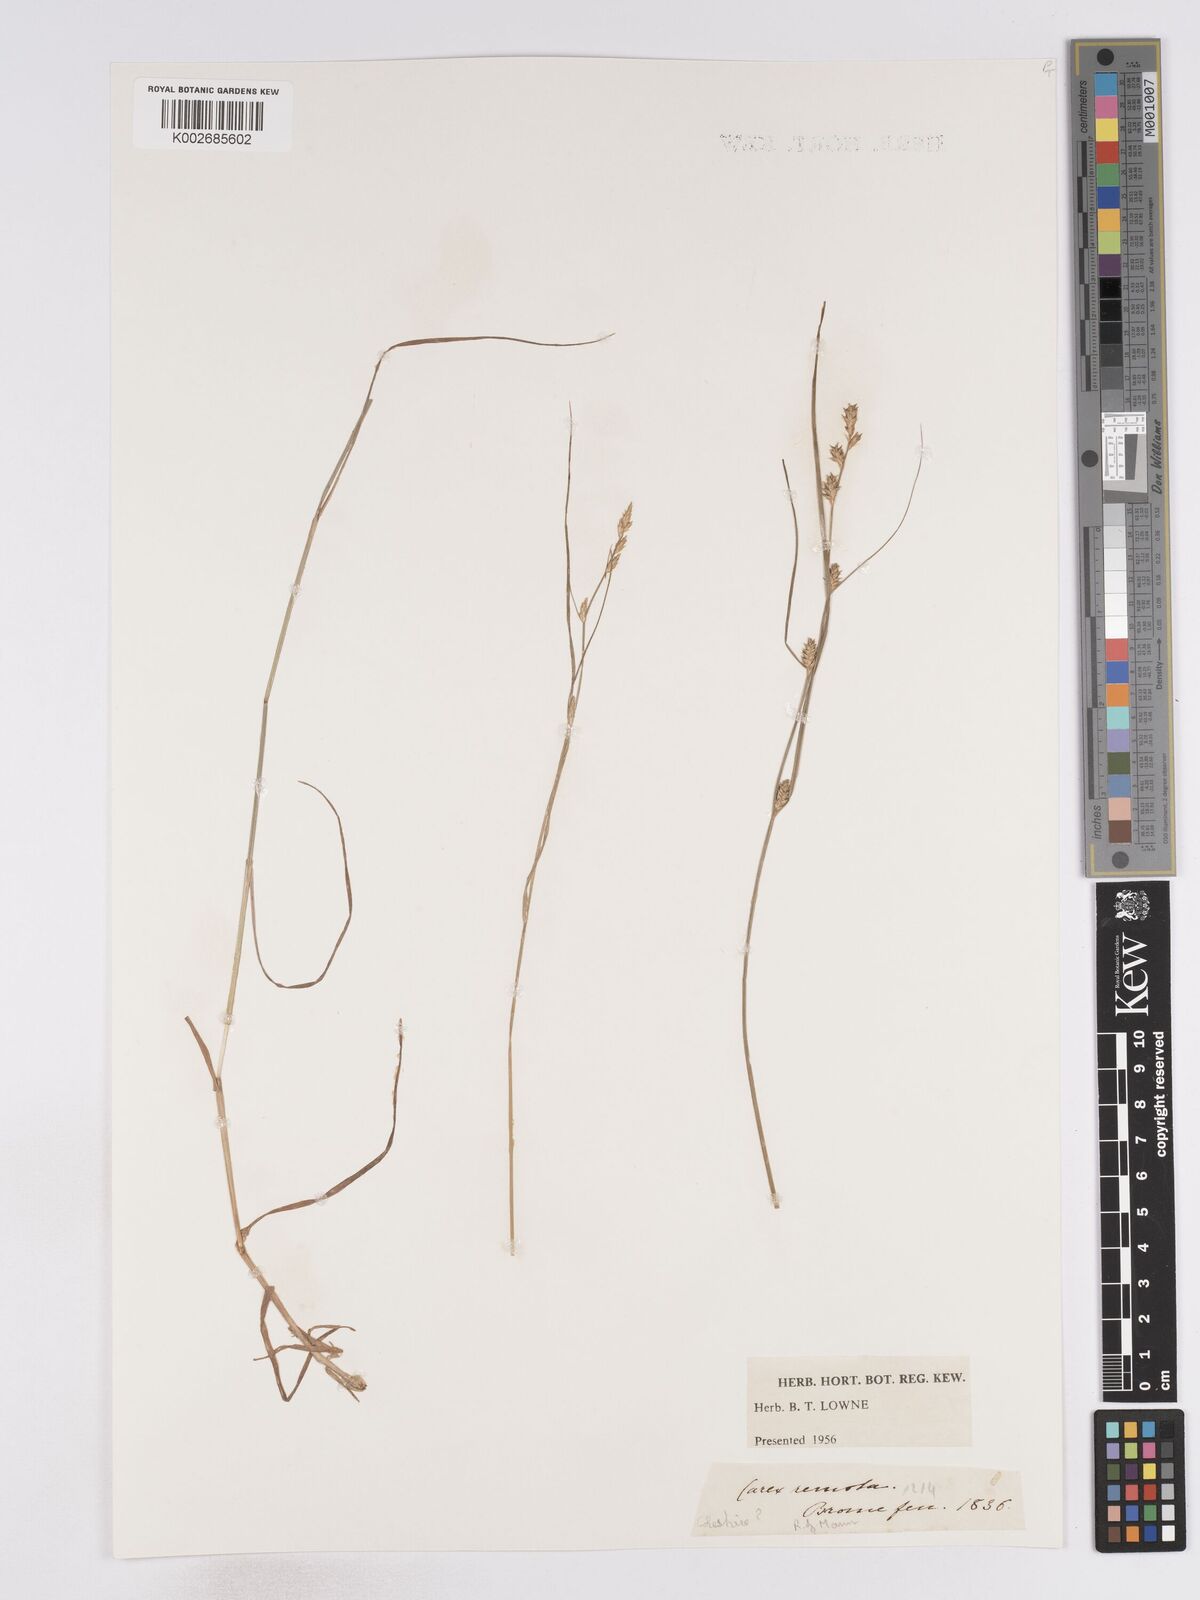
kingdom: Plantae
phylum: Tracheophyta
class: Liliopsida
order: Poales
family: Cyperaceae
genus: Carex
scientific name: Carex remota
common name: Remote sedge
